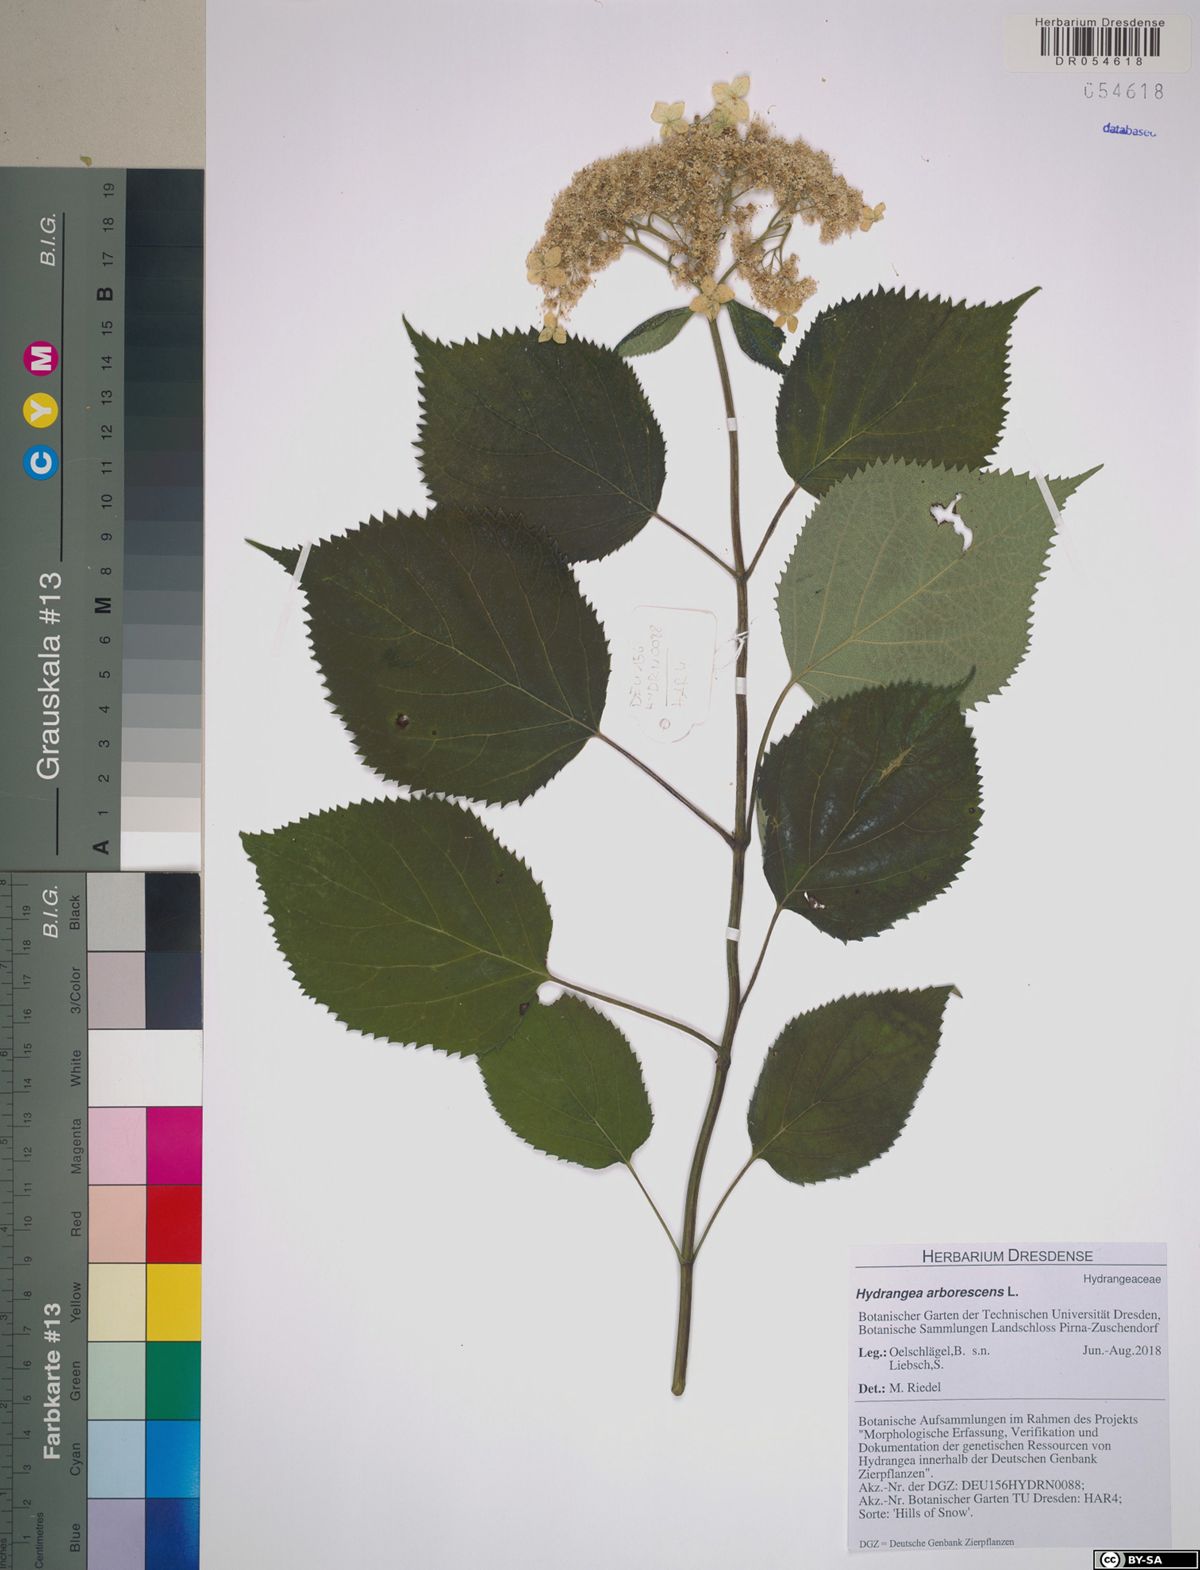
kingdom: Plantae
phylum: Tracheophyta
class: Magnoliopsida
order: Cornales
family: Hydrangeaceae
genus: Hydrangea
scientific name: Hydrangea arborescens
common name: Sevenbark
